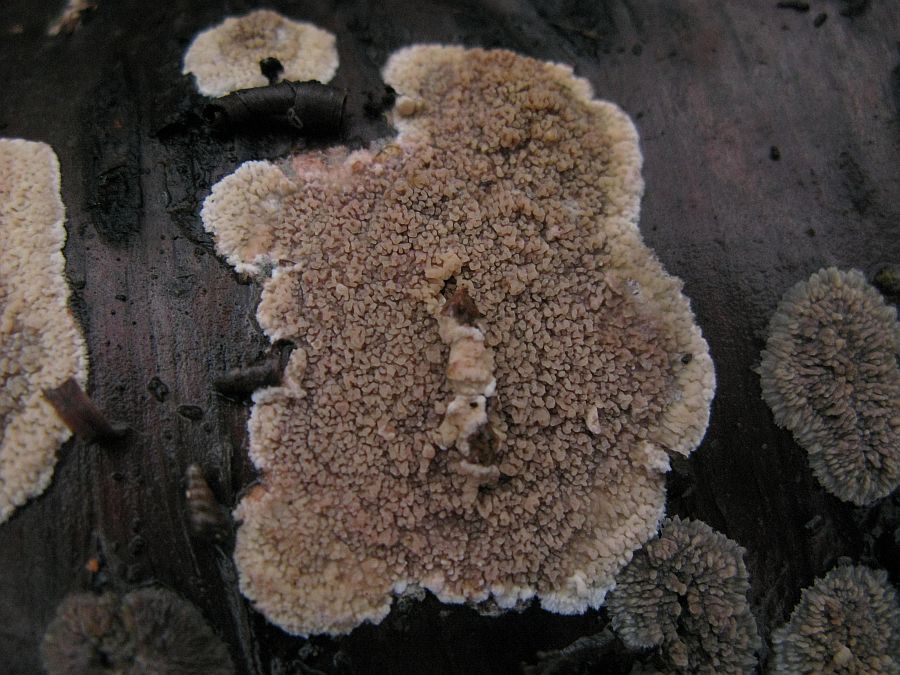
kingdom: Fungi
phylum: Basidiomycota
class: Agaricomycetes
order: Polyporales
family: Meruliaceae
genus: Phlebia
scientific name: Phlebia rufa
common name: ege-åresvamp
